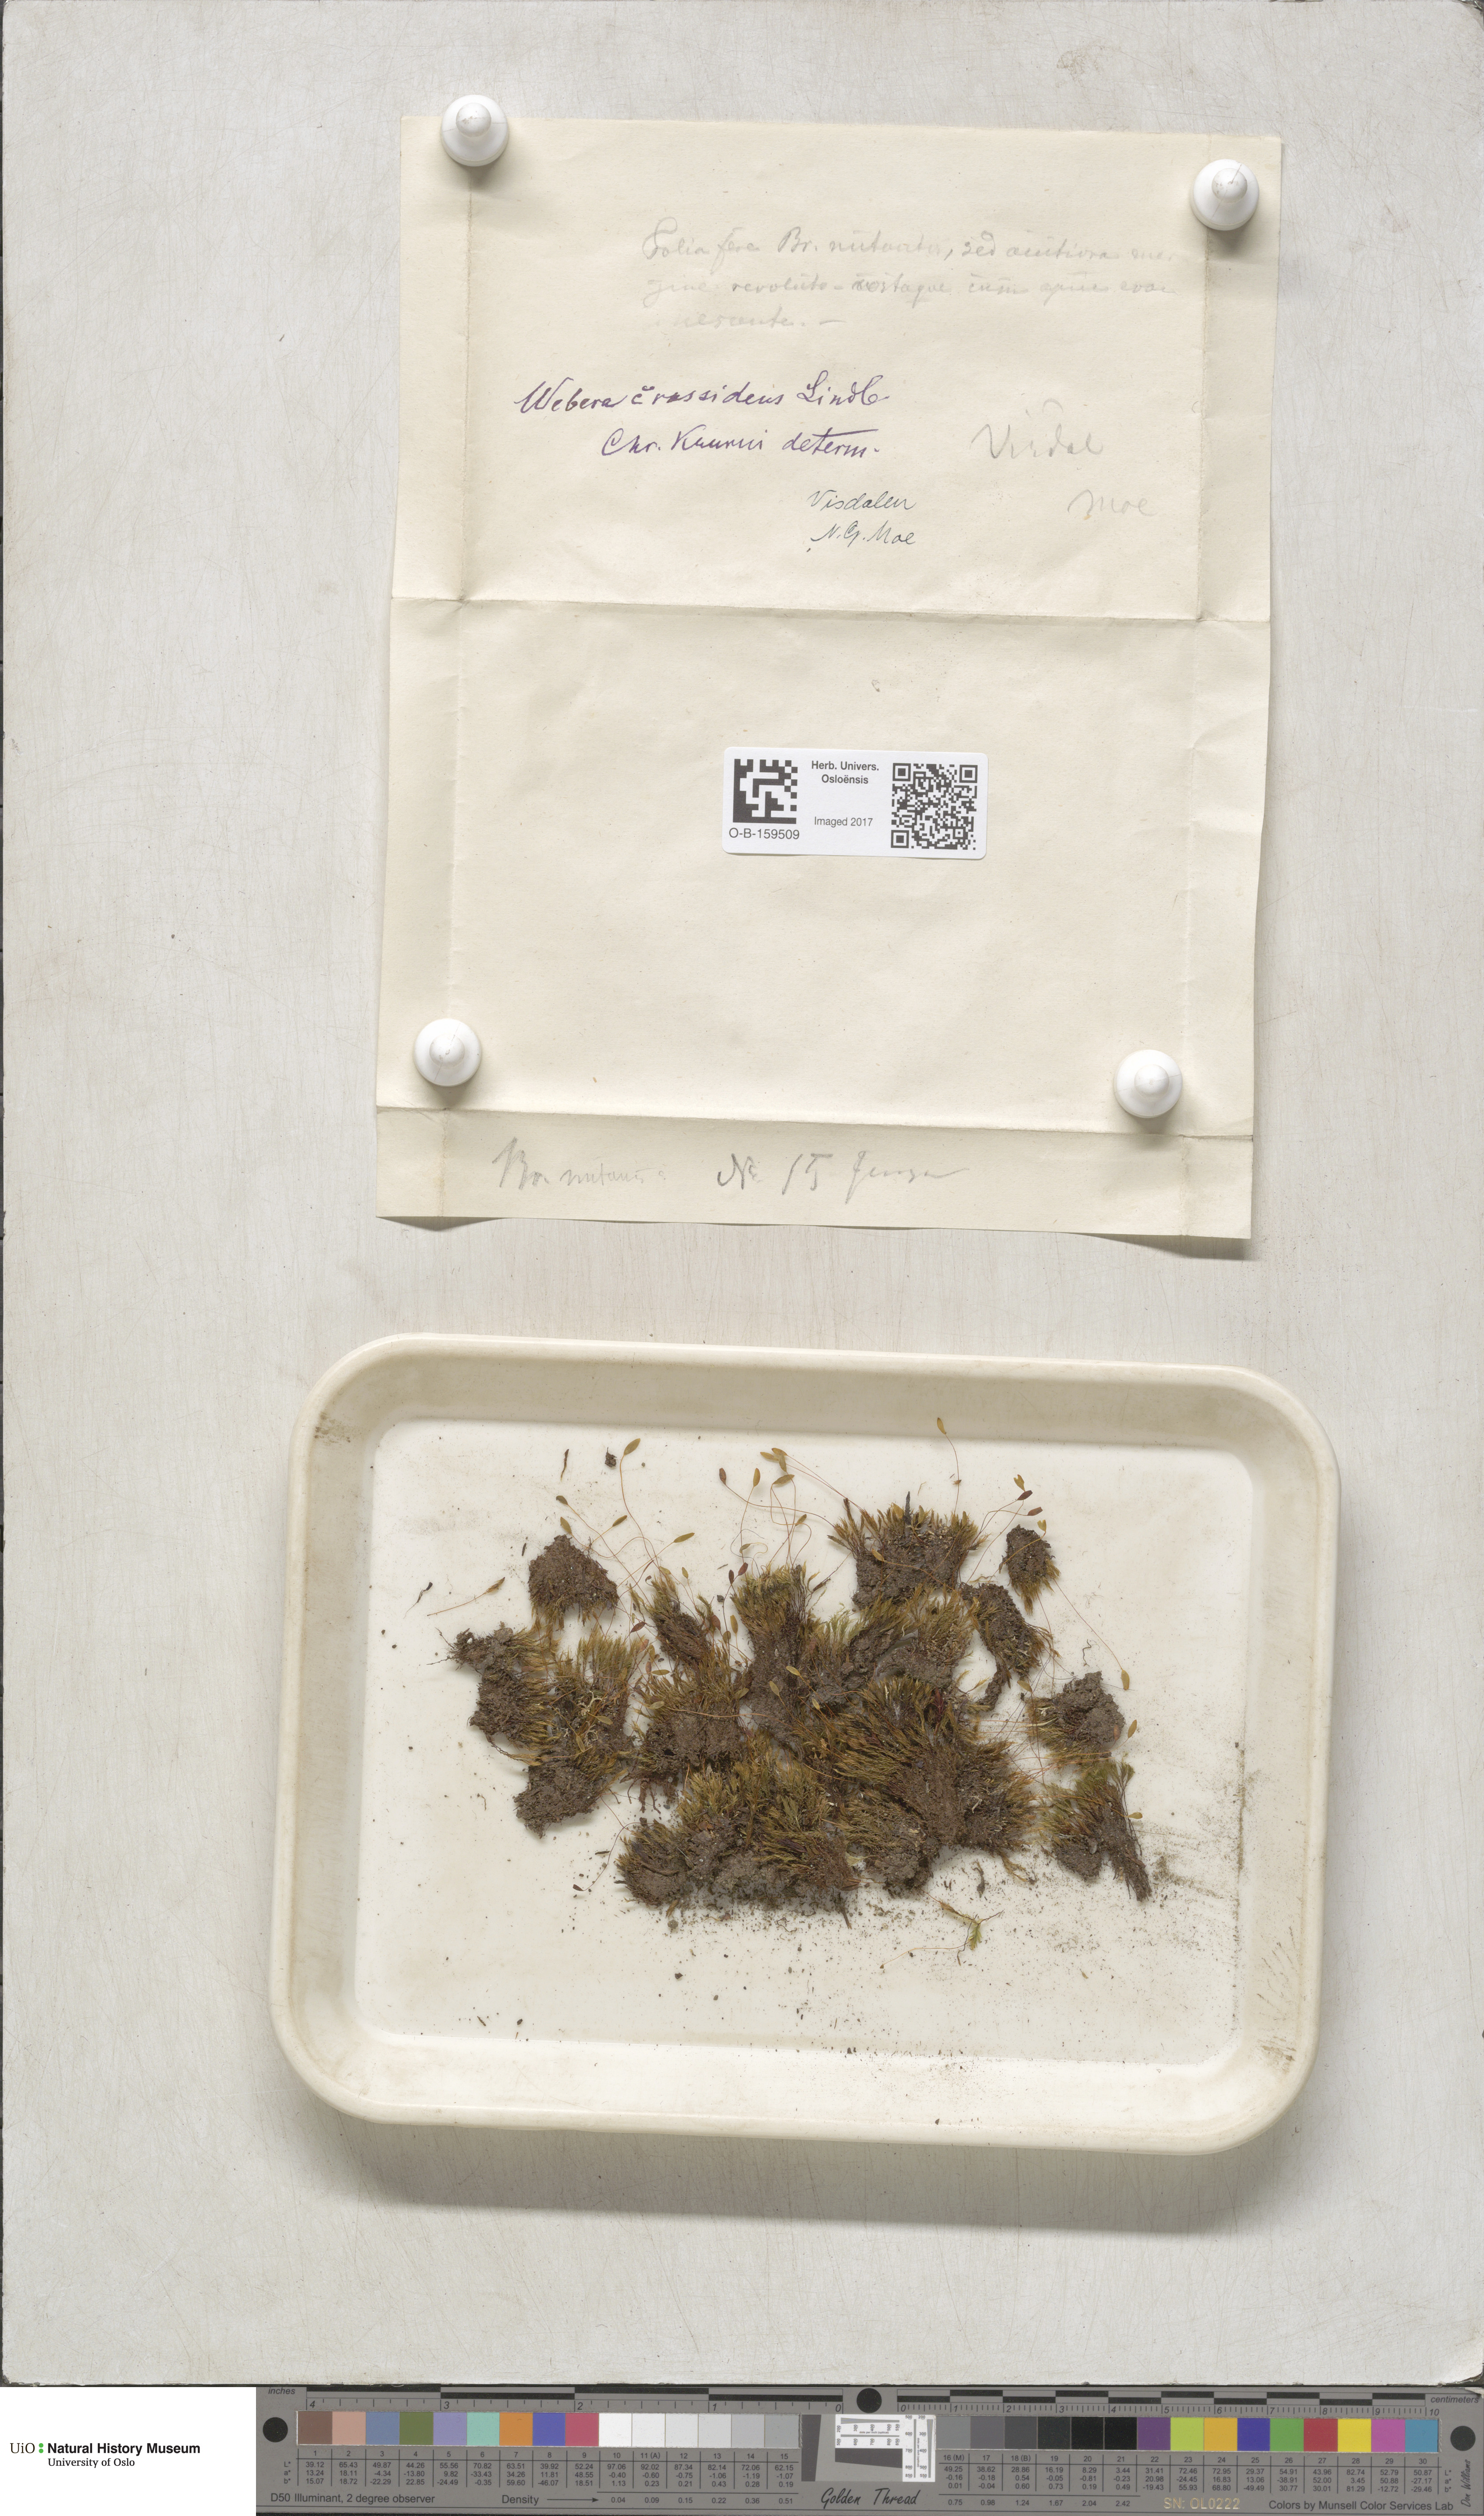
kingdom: Plantae
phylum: Bryophyta
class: Bryopsida
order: Bryales
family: Mniaceae
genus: Pohlia
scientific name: Pohlia crudoides
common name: Pipe nodding moss
